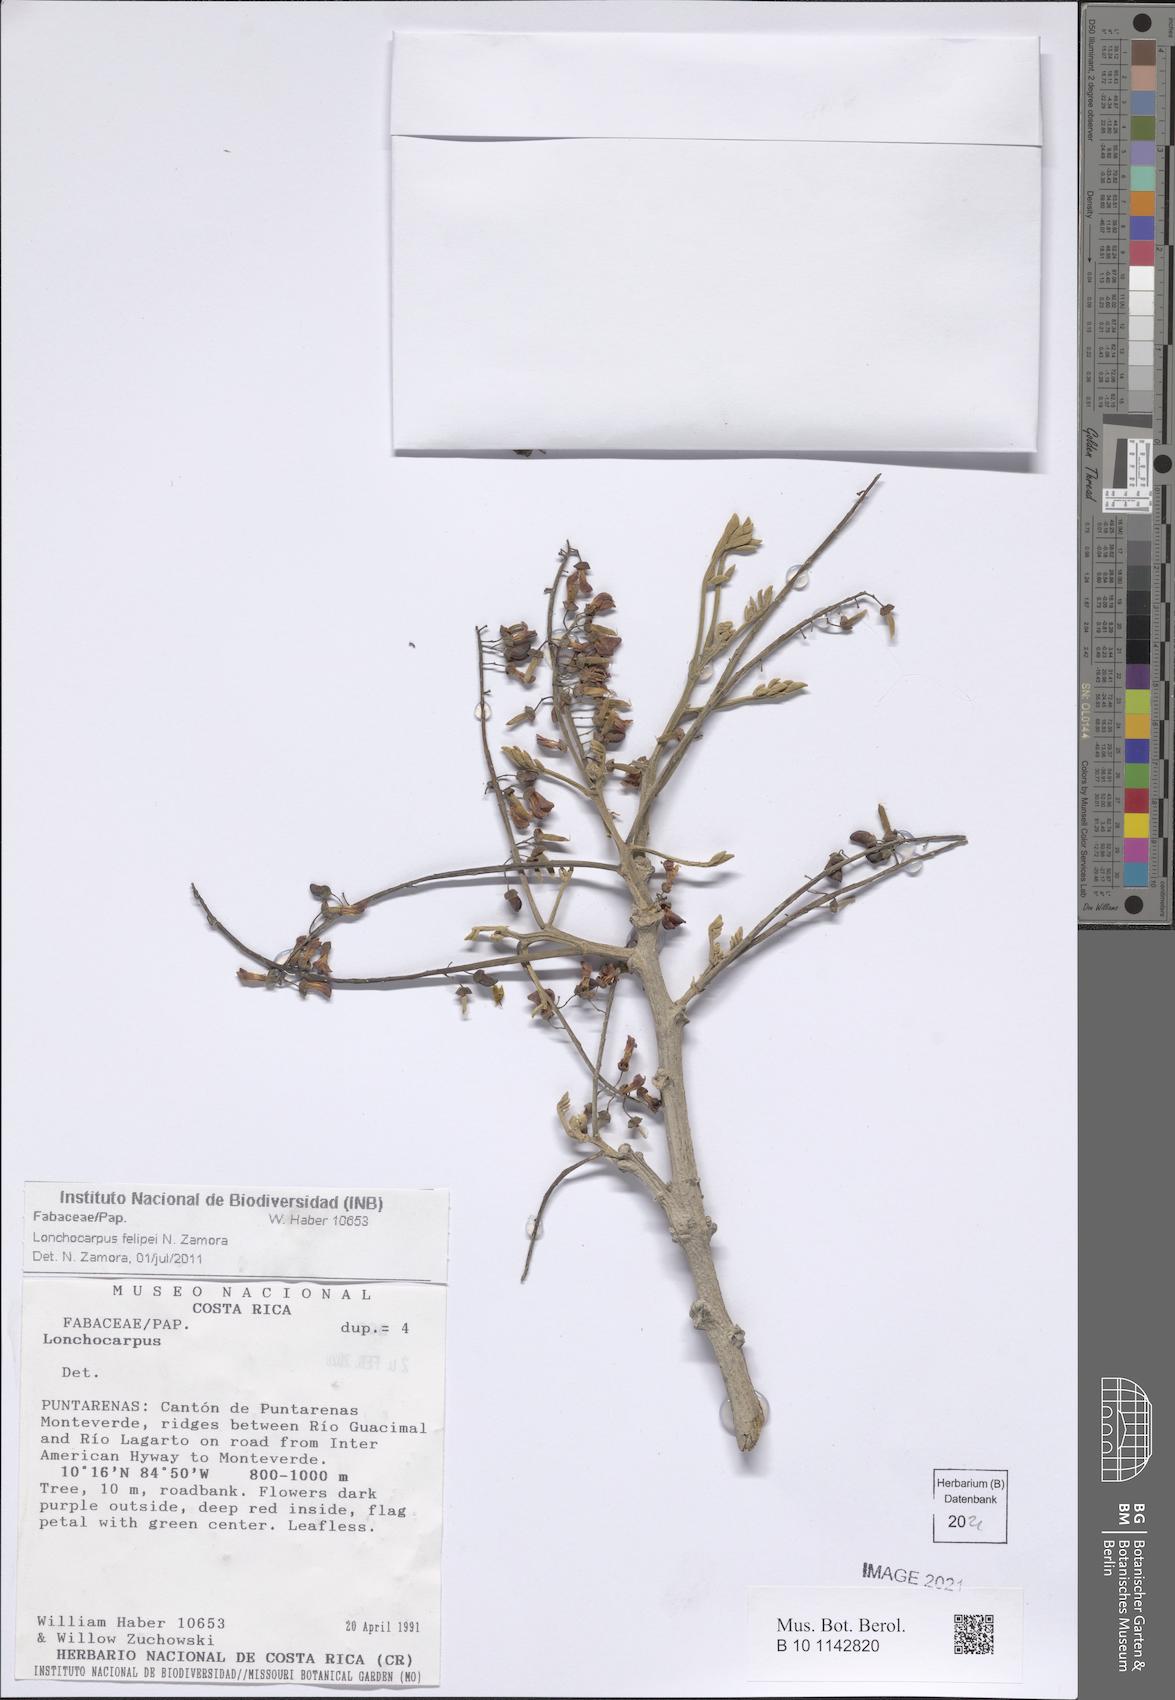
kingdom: Plantae
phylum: Tracheophyta
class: Magnoliopsida
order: Fabales
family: Fabaceae
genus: Lonchocarpus
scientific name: Lonchocarpus felipei
